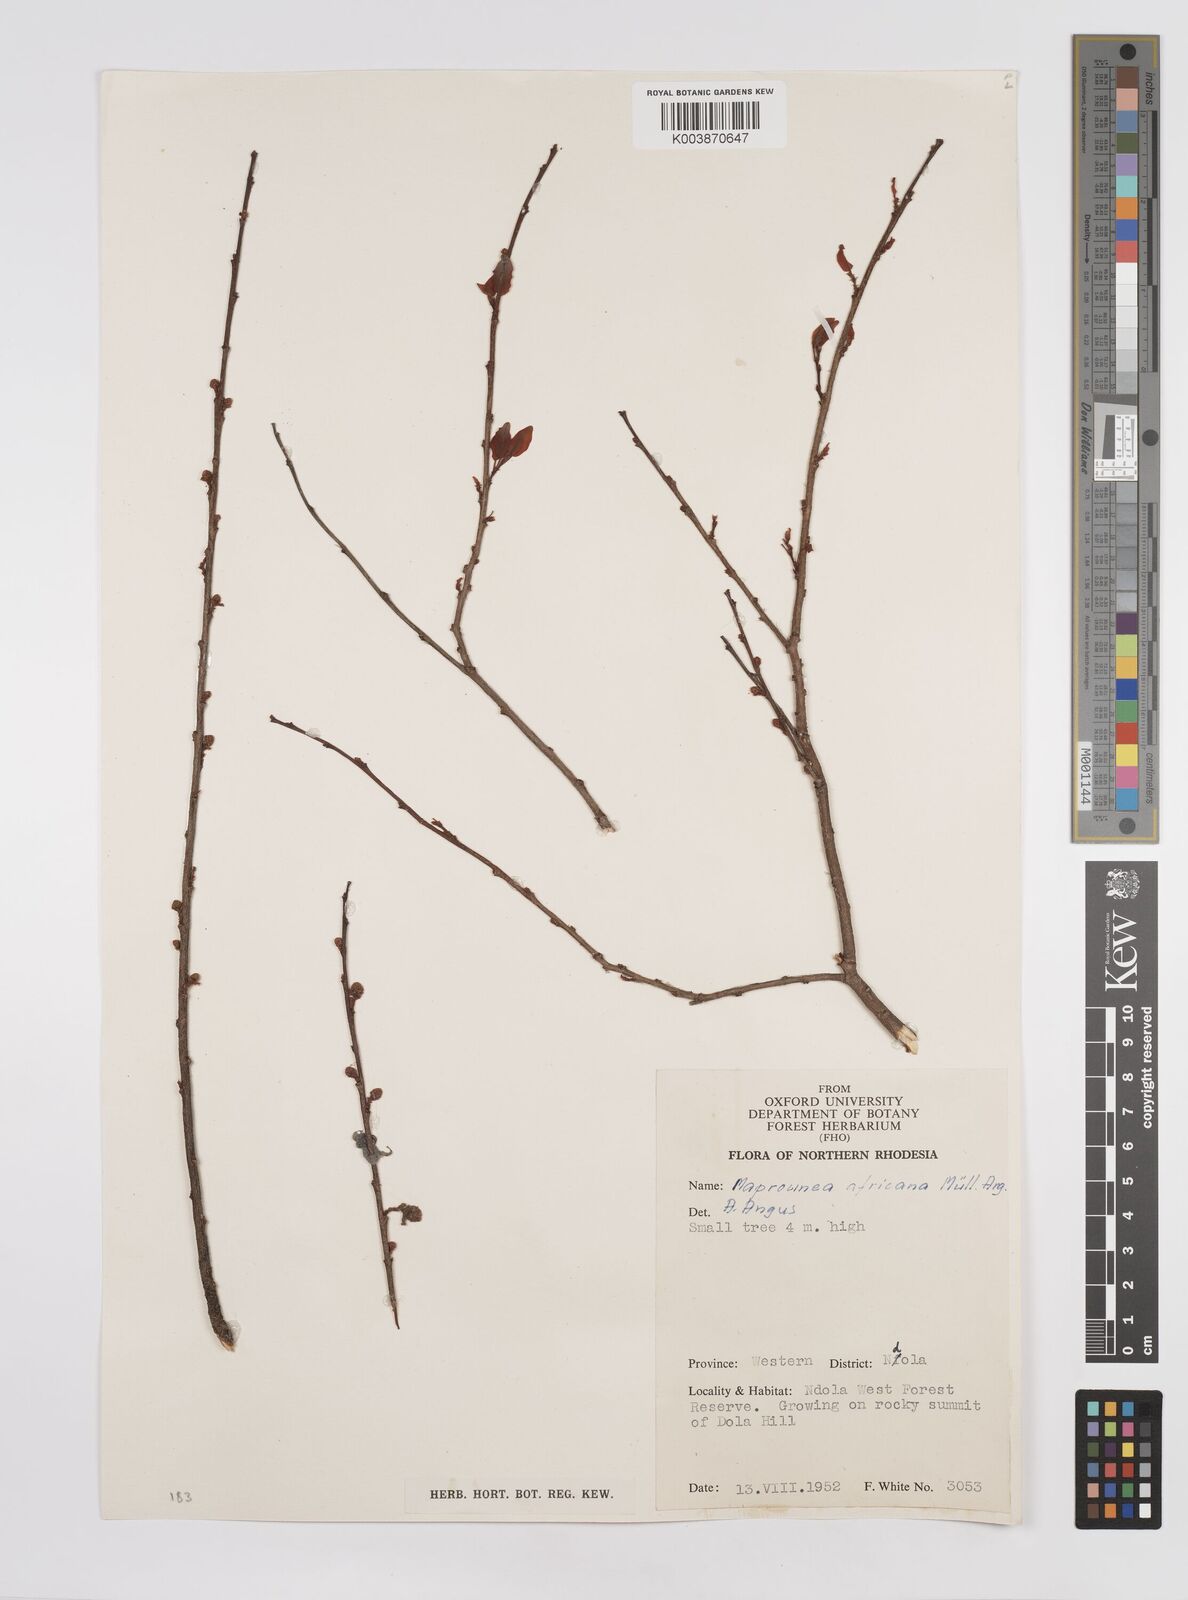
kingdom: Plantae
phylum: Tracheophyta
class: Magnoliopsida
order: Malpighiales
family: Euphorbiaceae
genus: Maprounea
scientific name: Maprounea africana
